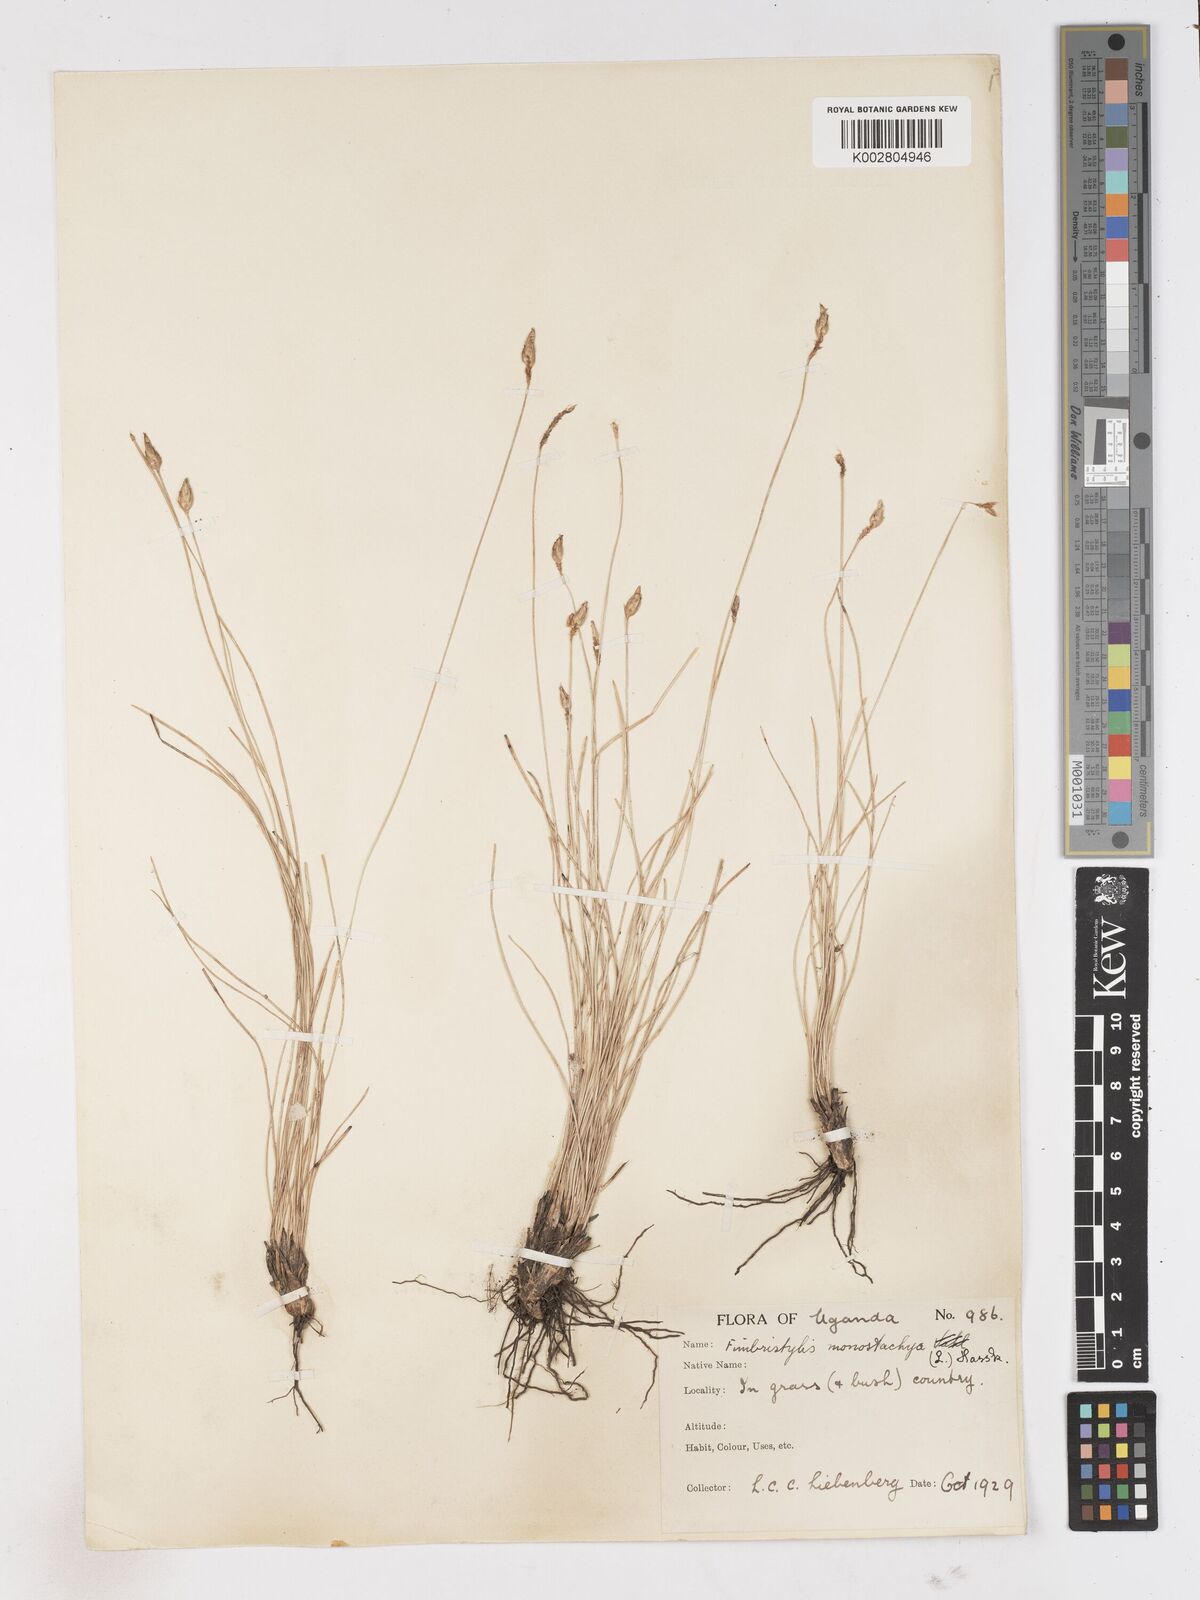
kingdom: Plantae
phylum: Tracheophyta
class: Liliopsida
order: Poales
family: Cyperaceae
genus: Abildgaardia
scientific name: Abildgaardia ovata
